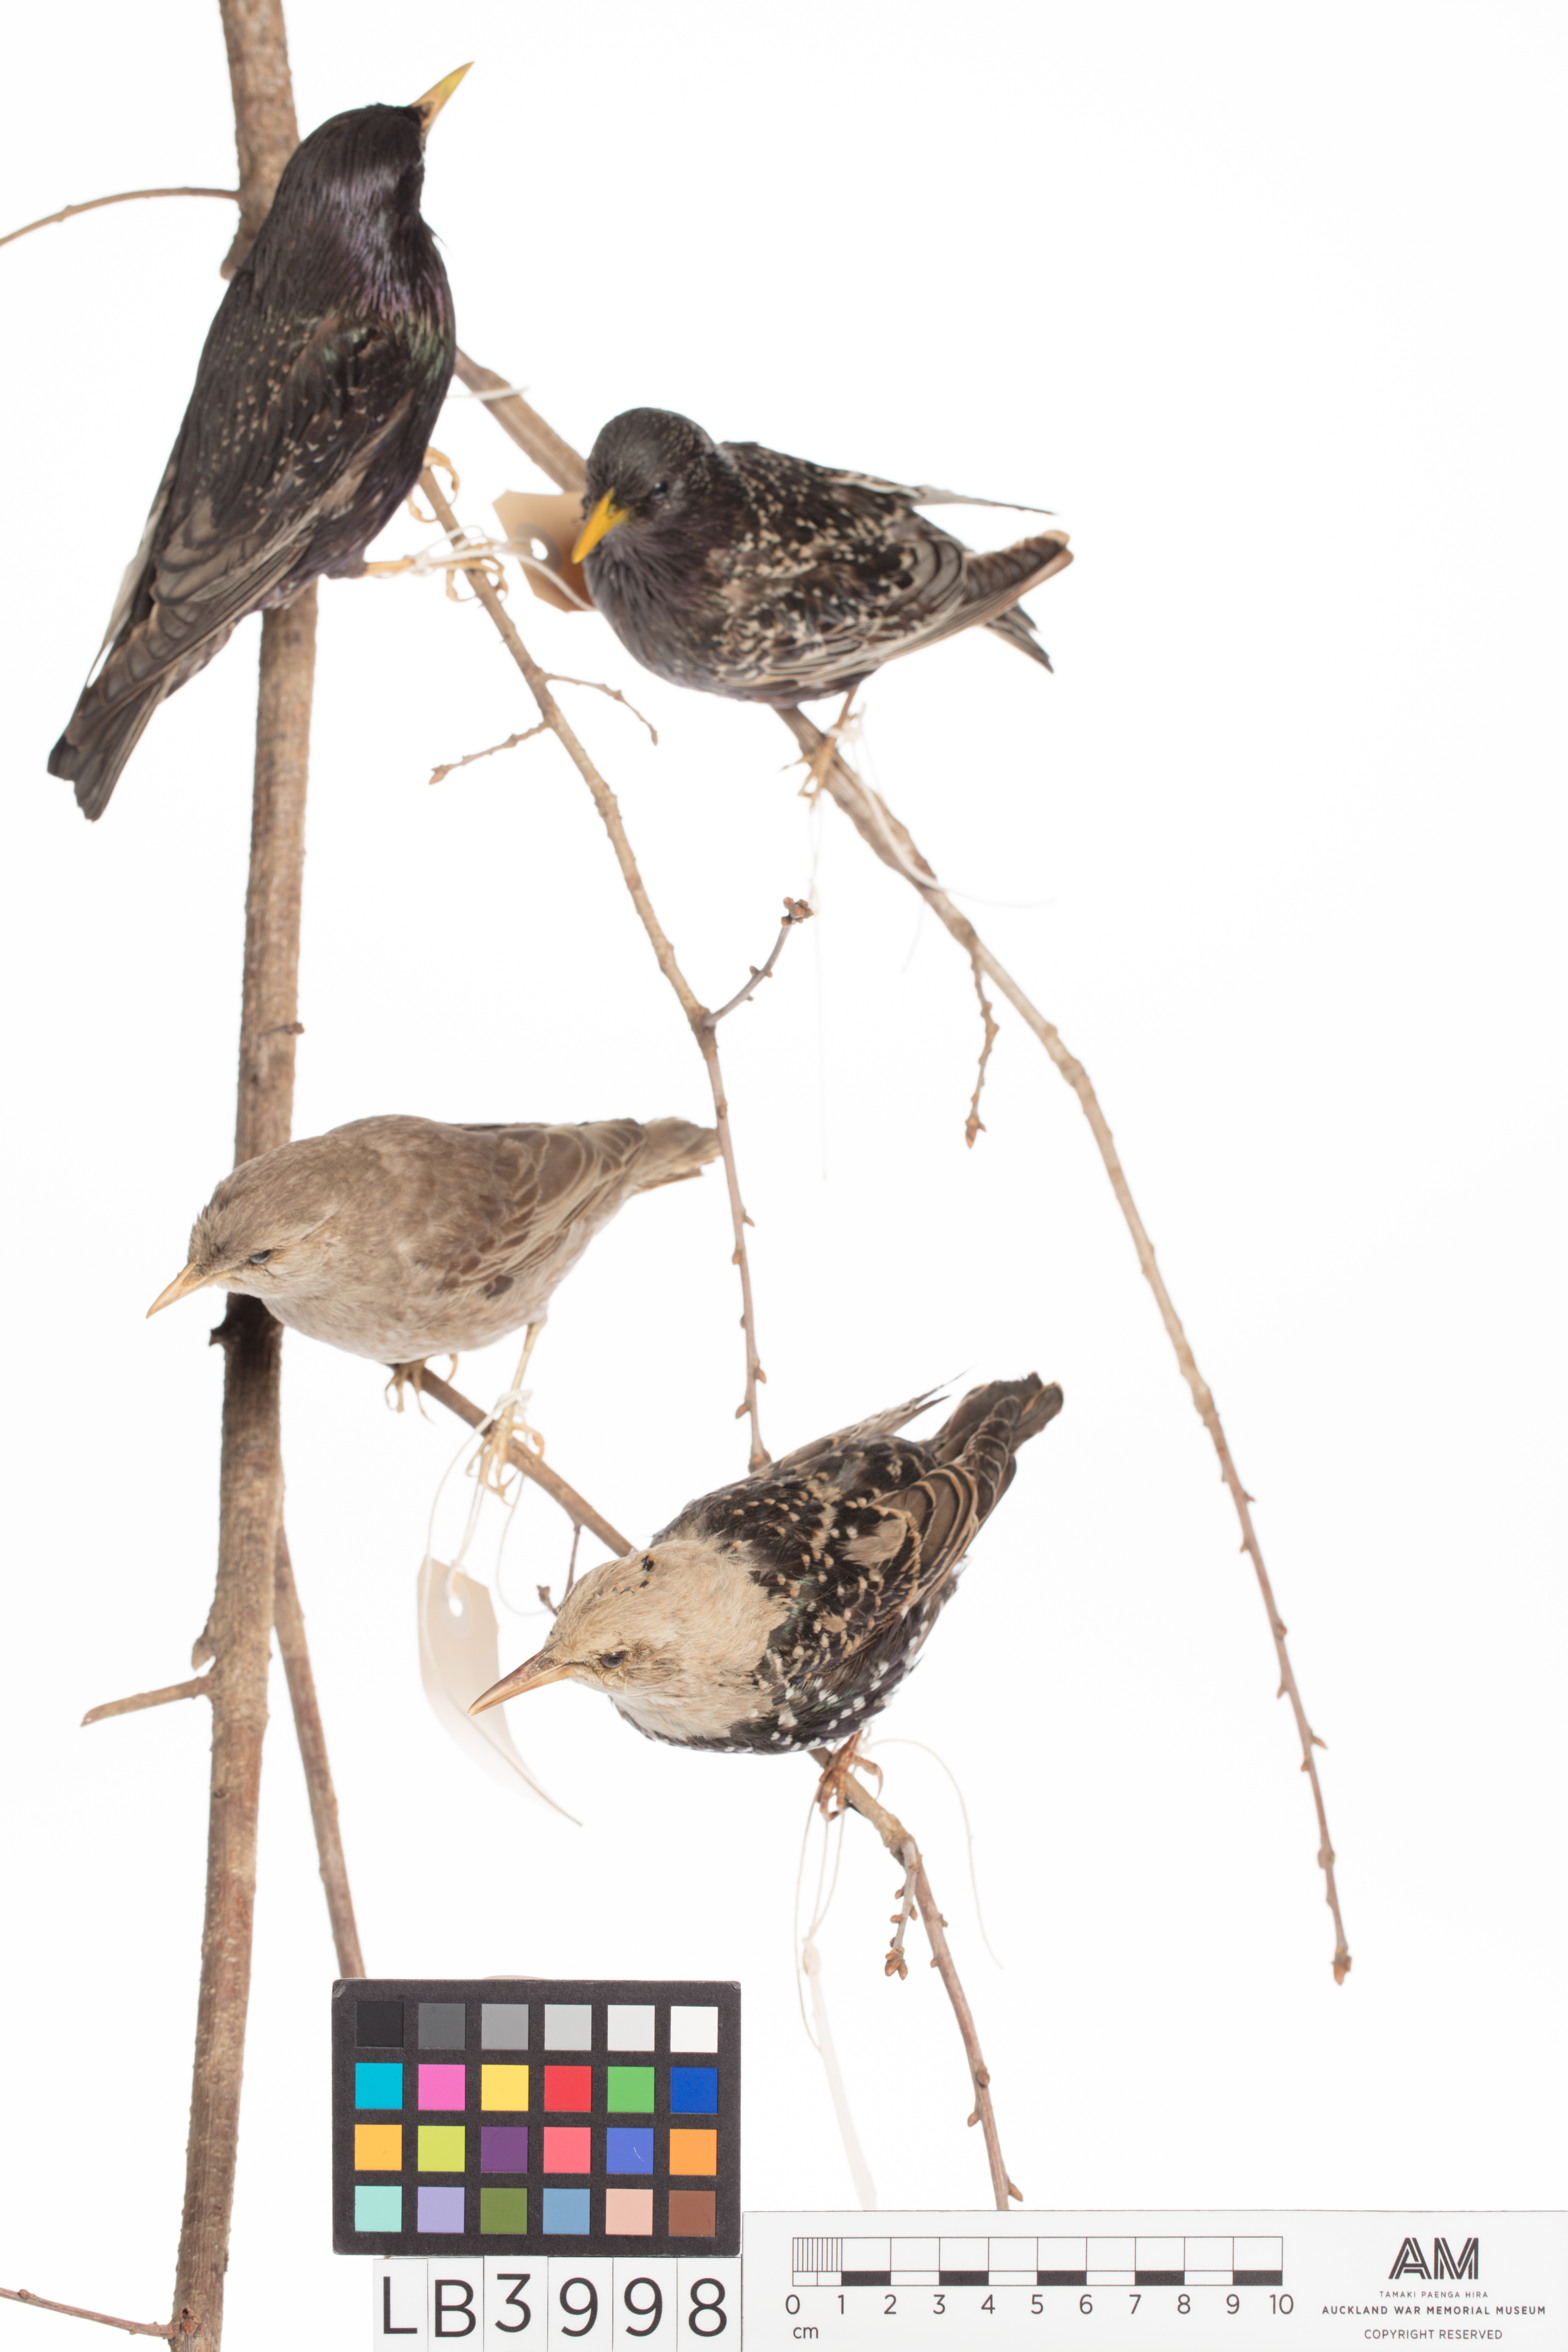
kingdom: Animalia
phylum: Chordata
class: Aves
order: Passeriformes
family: Sturnidae
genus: Sturnus
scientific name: Sturnus vulgaris
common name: Common starling
